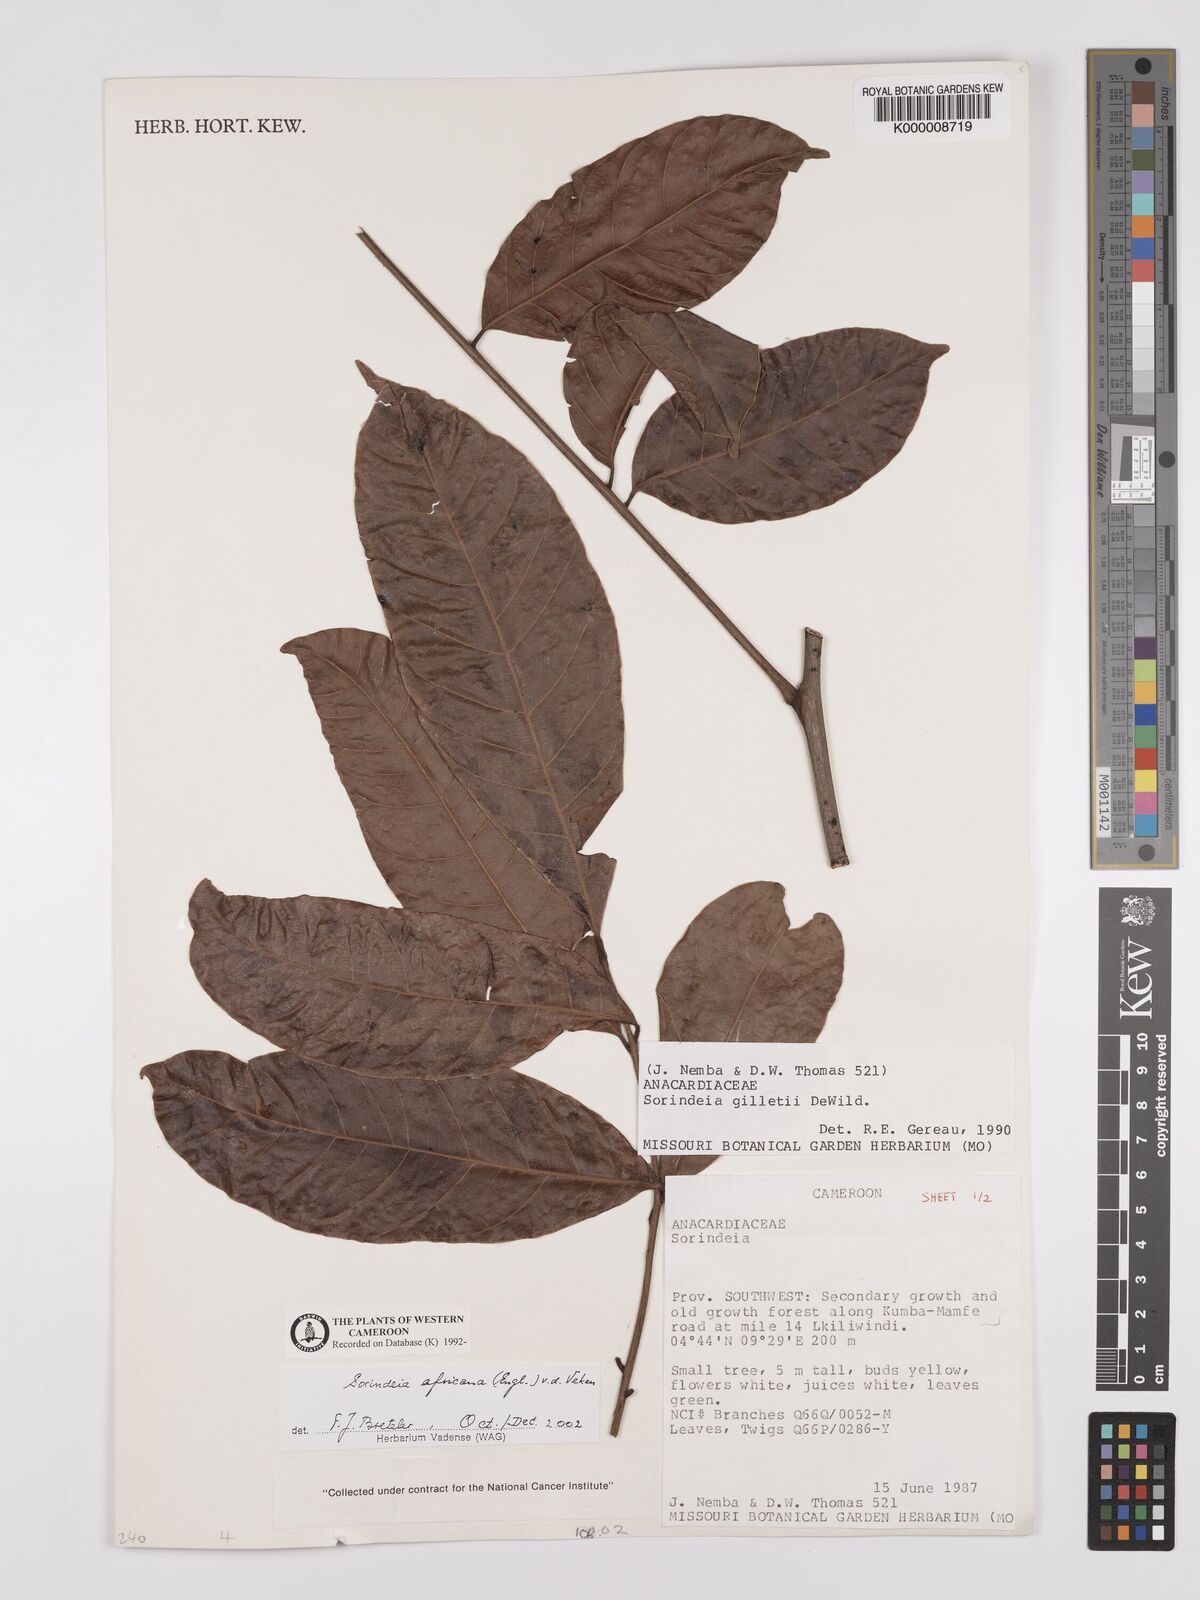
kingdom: Plantae
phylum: Tracheophyta
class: Magnoliopsida
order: Sapindales
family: Anacardiaceae
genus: Sorindeia
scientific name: Sorindeia africana
